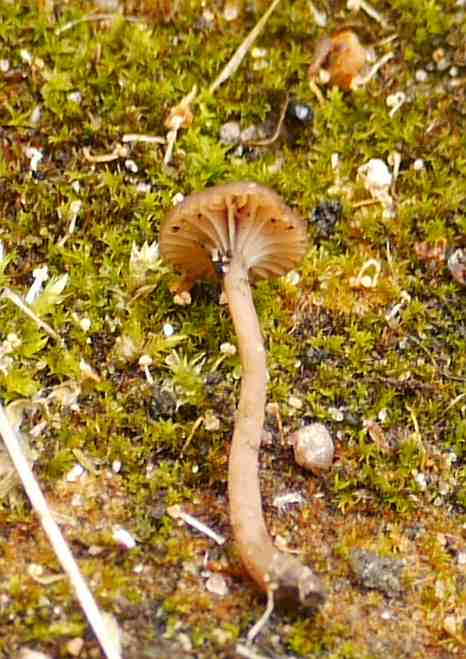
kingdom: Fungi
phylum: Basidiomycota
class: Agaricomycetes
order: Agaricales
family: Tricholomataceae
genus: Omphalina
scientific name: Omphalina pyxidata
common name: rødbrun navlehat
